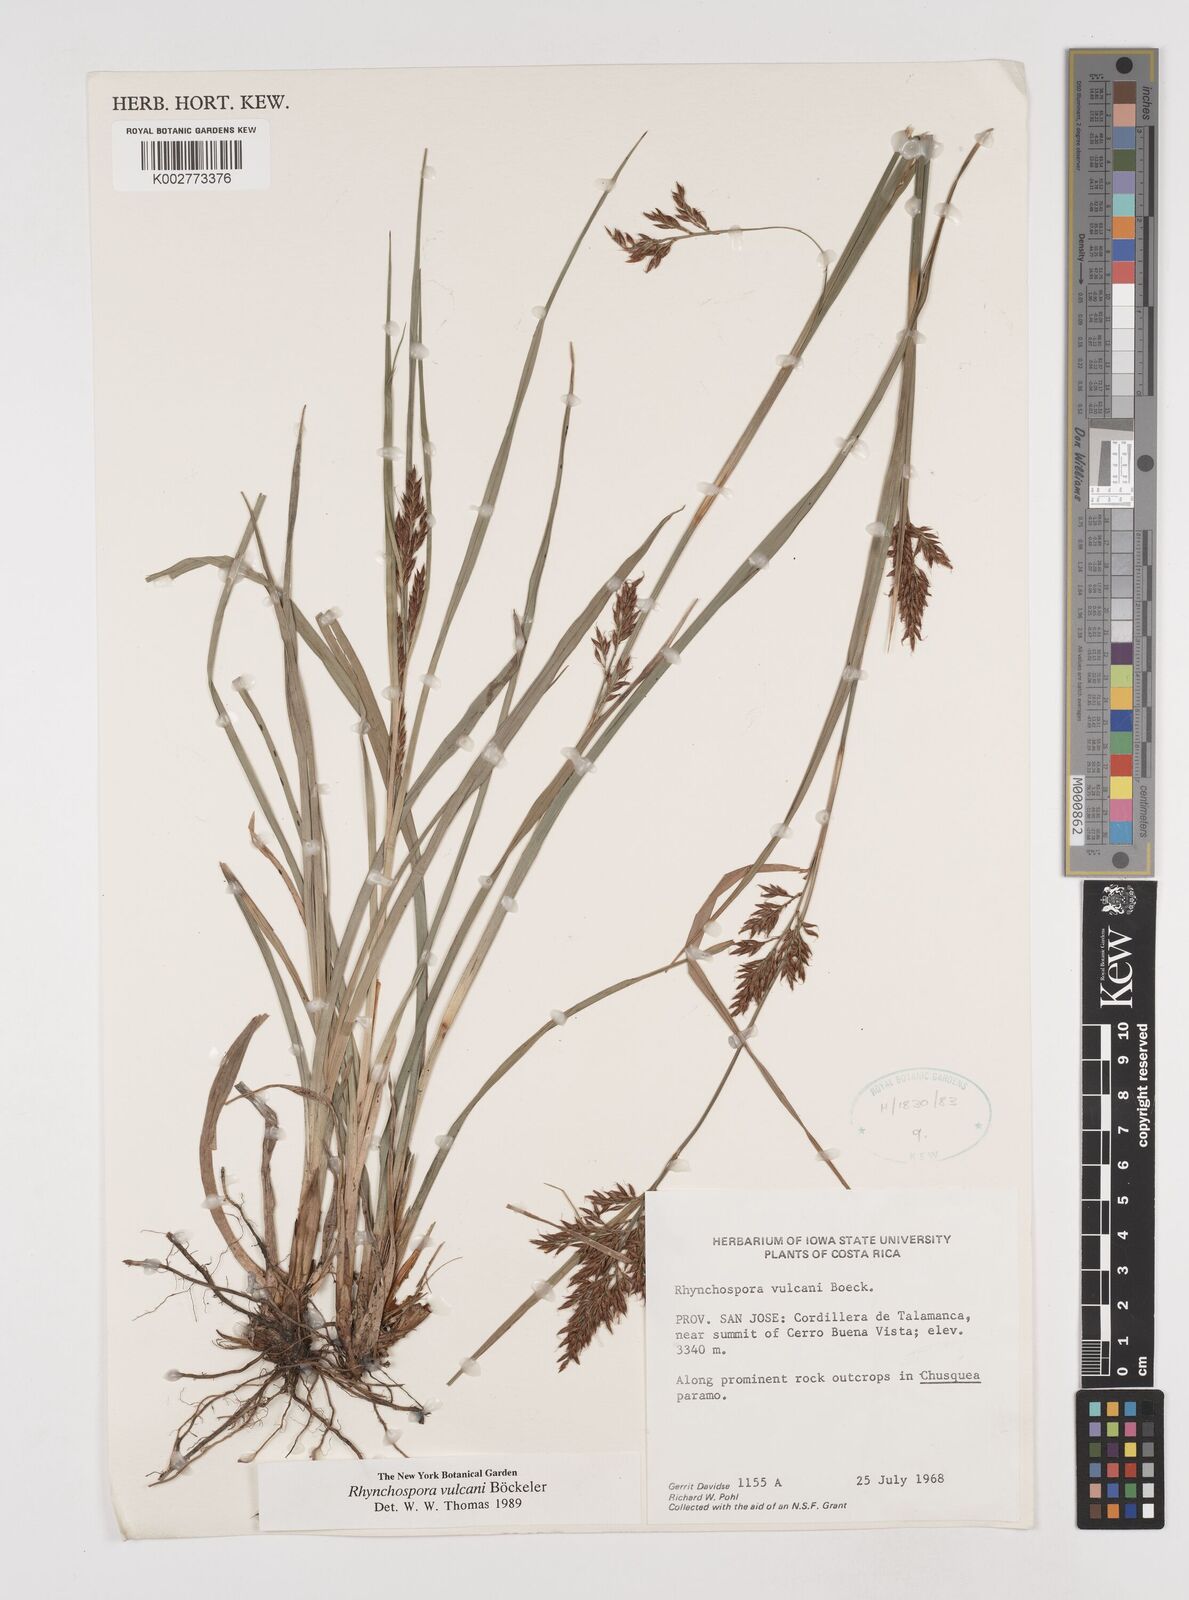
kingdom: Plantae
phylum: Tracheophyta
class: Liliopsida
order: Poales
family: Cyperaceae
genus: Rhynchospora
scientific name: Rhynchospora vulcani
